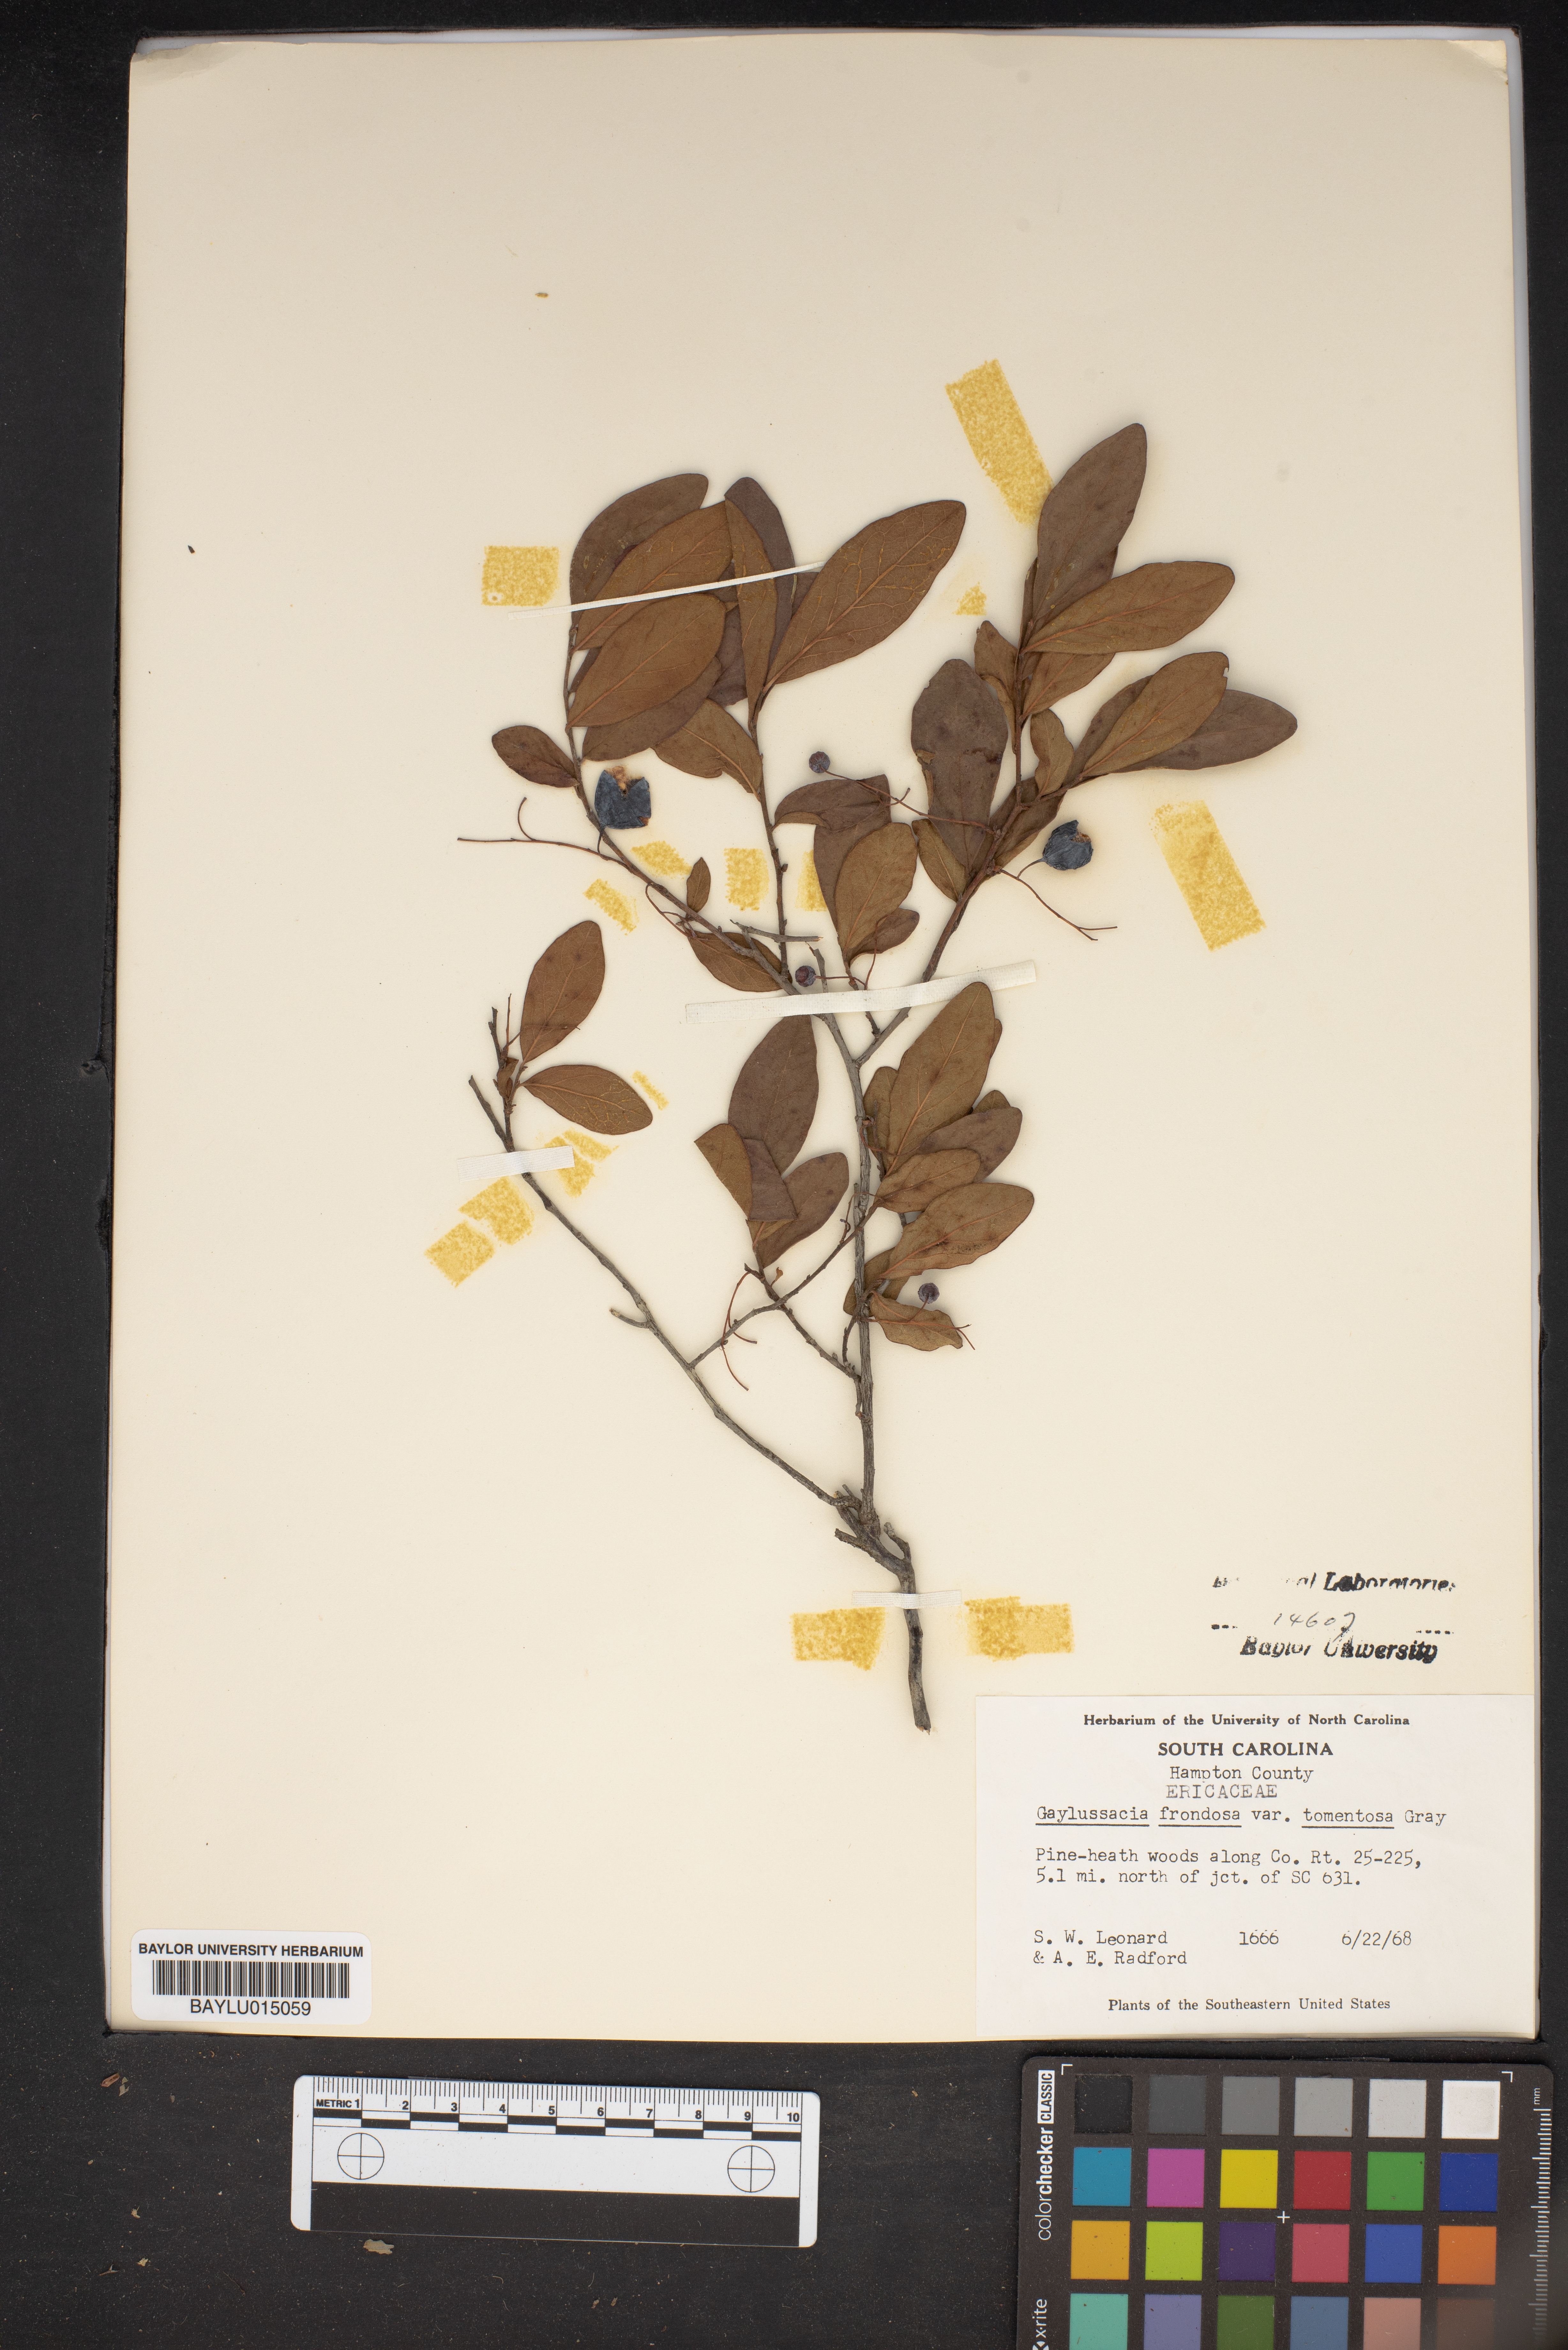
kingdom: Plantae
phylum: Tracheophyta
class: Magnoliopsida
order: Ericales
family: Ericaceae
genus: Gaylussacia
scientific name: Gaylussacia tomentosa
